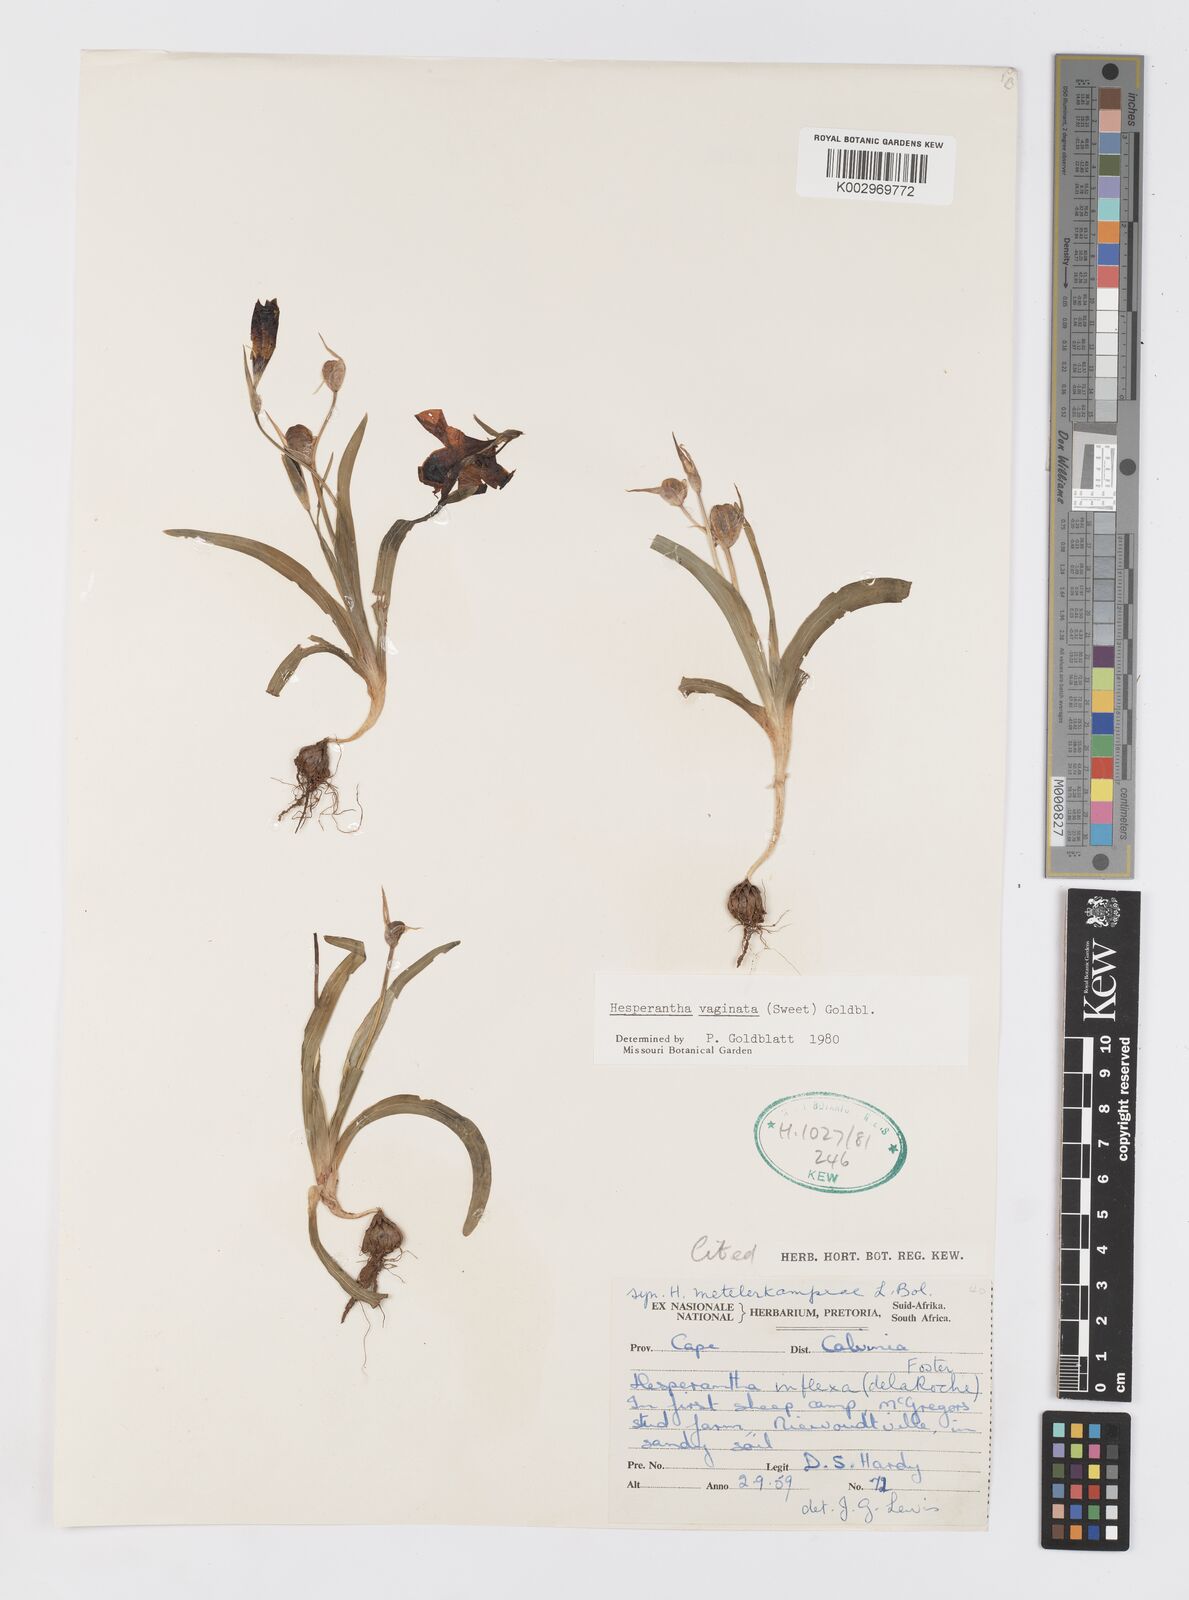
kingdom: Plantae
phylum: Tracheophyta
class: Liliopsida
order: Asparagales
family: Iridaceae
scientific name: Iridaceae
